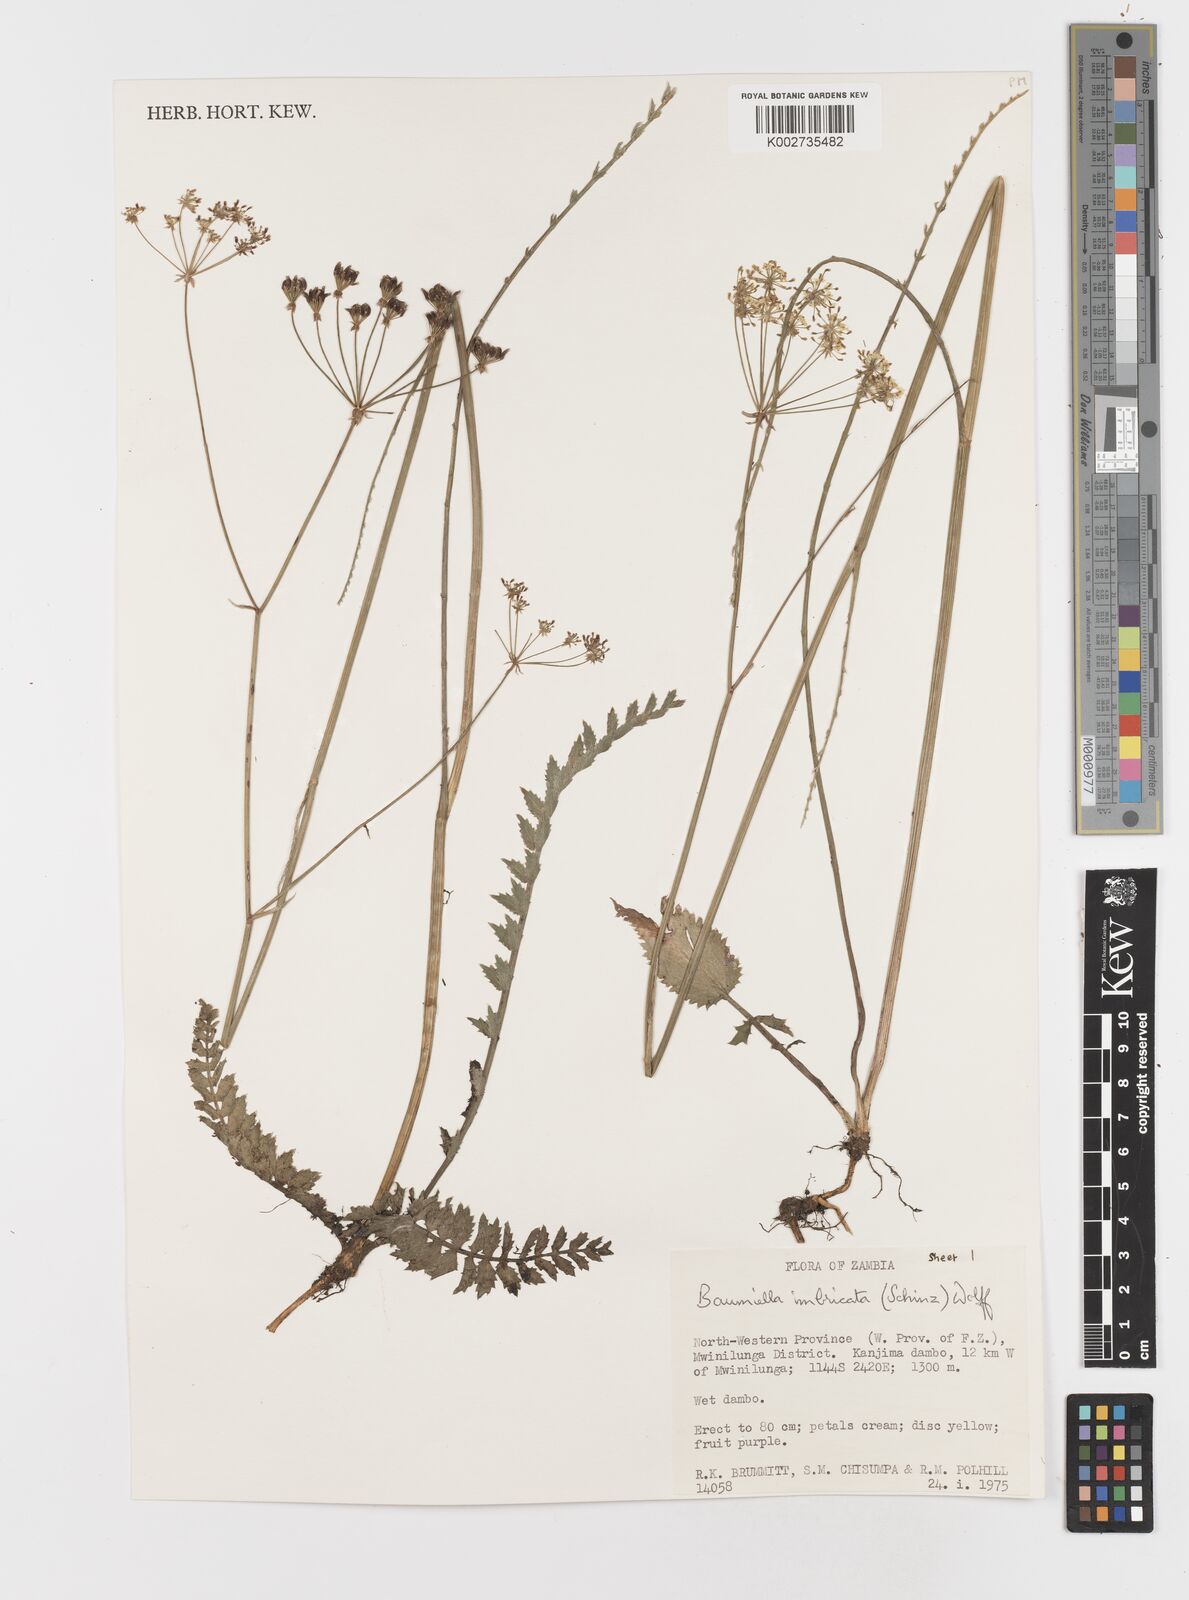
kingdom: Plantae
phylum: Tracheophyta
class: Magnoliopsida
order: Apiales
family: Apiaceae
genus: Berula
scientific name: Berula imbricata
